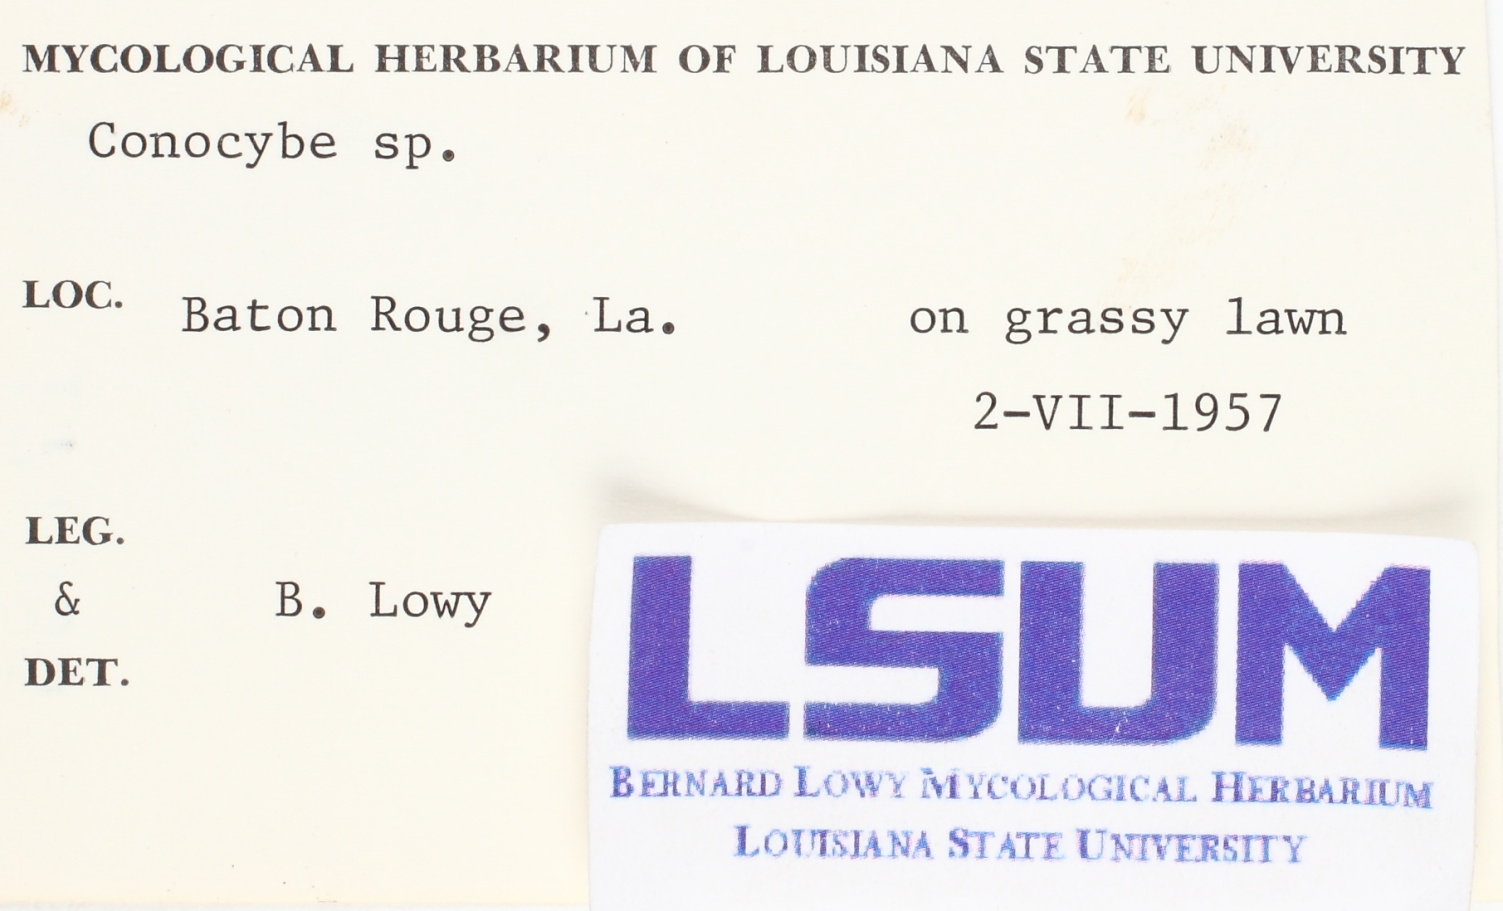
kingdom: Fungi
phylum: Basidiomycota
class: Agaricomycetes
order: Agaricales
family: Bolbitiaceae
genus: Conocybe
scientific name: Conocybe
